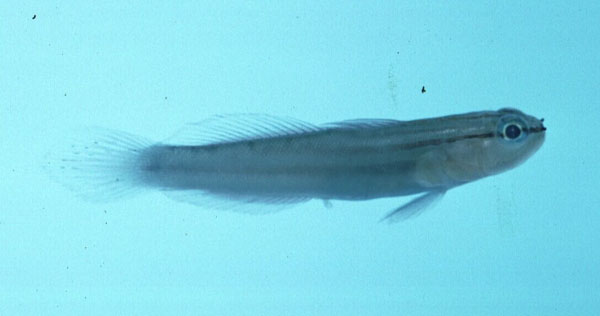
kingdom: Animalia
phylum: Chordata
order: Perciformes
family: Gobiidae
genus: Amblygobius
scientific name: Amblygobius tekomaji
